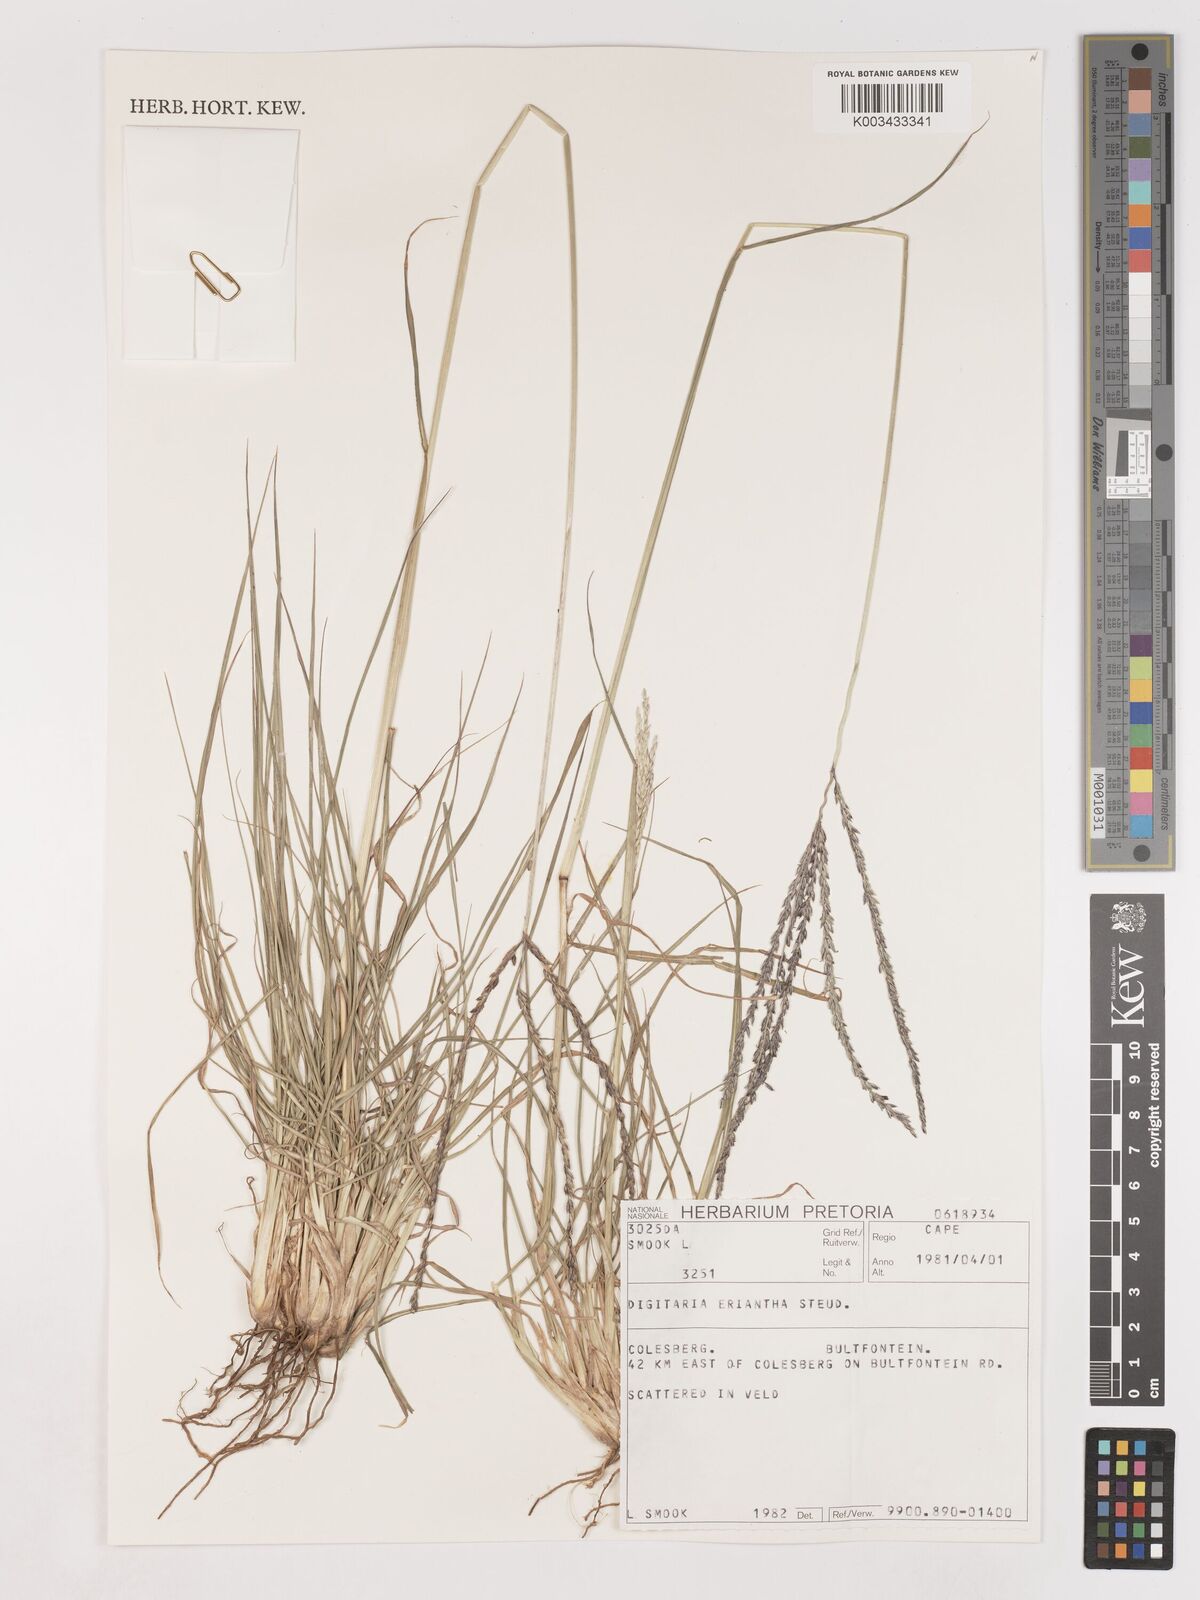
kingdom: Plantae
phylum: Tracheophyta
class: Liliopsida
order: Poales
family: Poaceae
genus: Digitaria
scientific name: Digitaria eriantha
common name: Digitgrass
